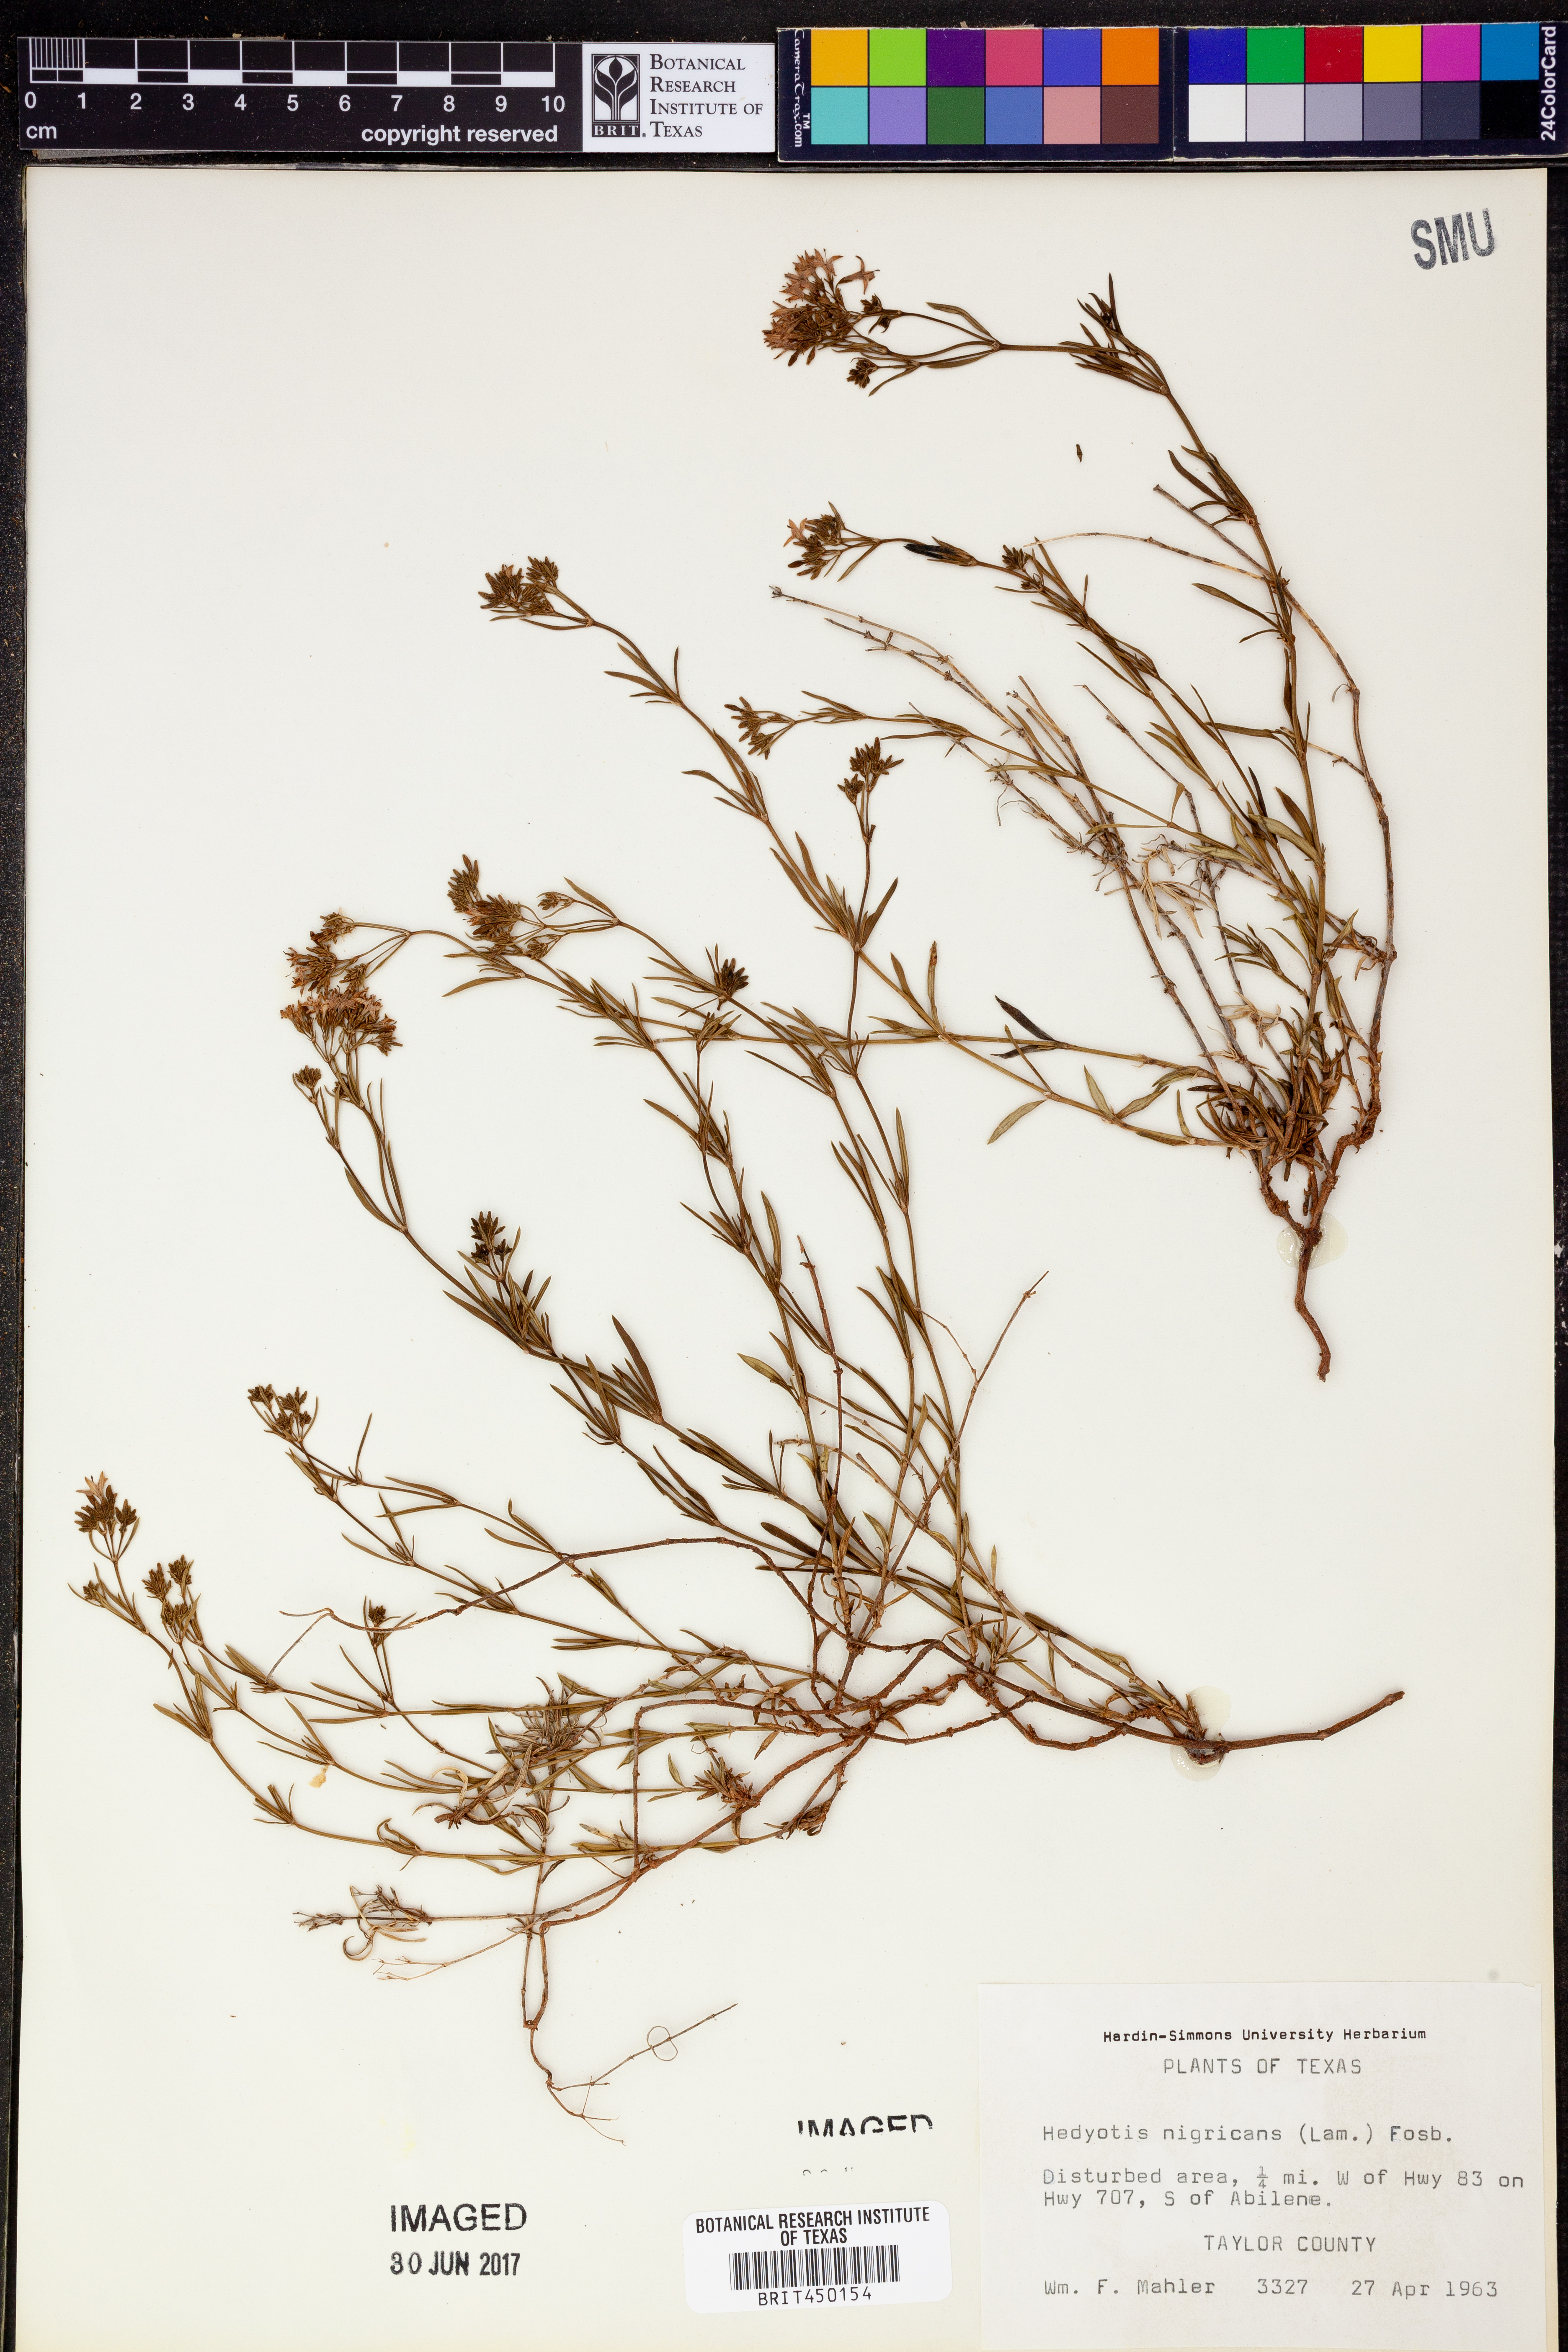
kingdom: Plantae
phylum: Tracheophyta
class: Magnoliopsida
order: Gentianales
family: Rubiaceae
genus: Stenaria
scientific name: Stenaria nigricans
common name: Diamondflowers
